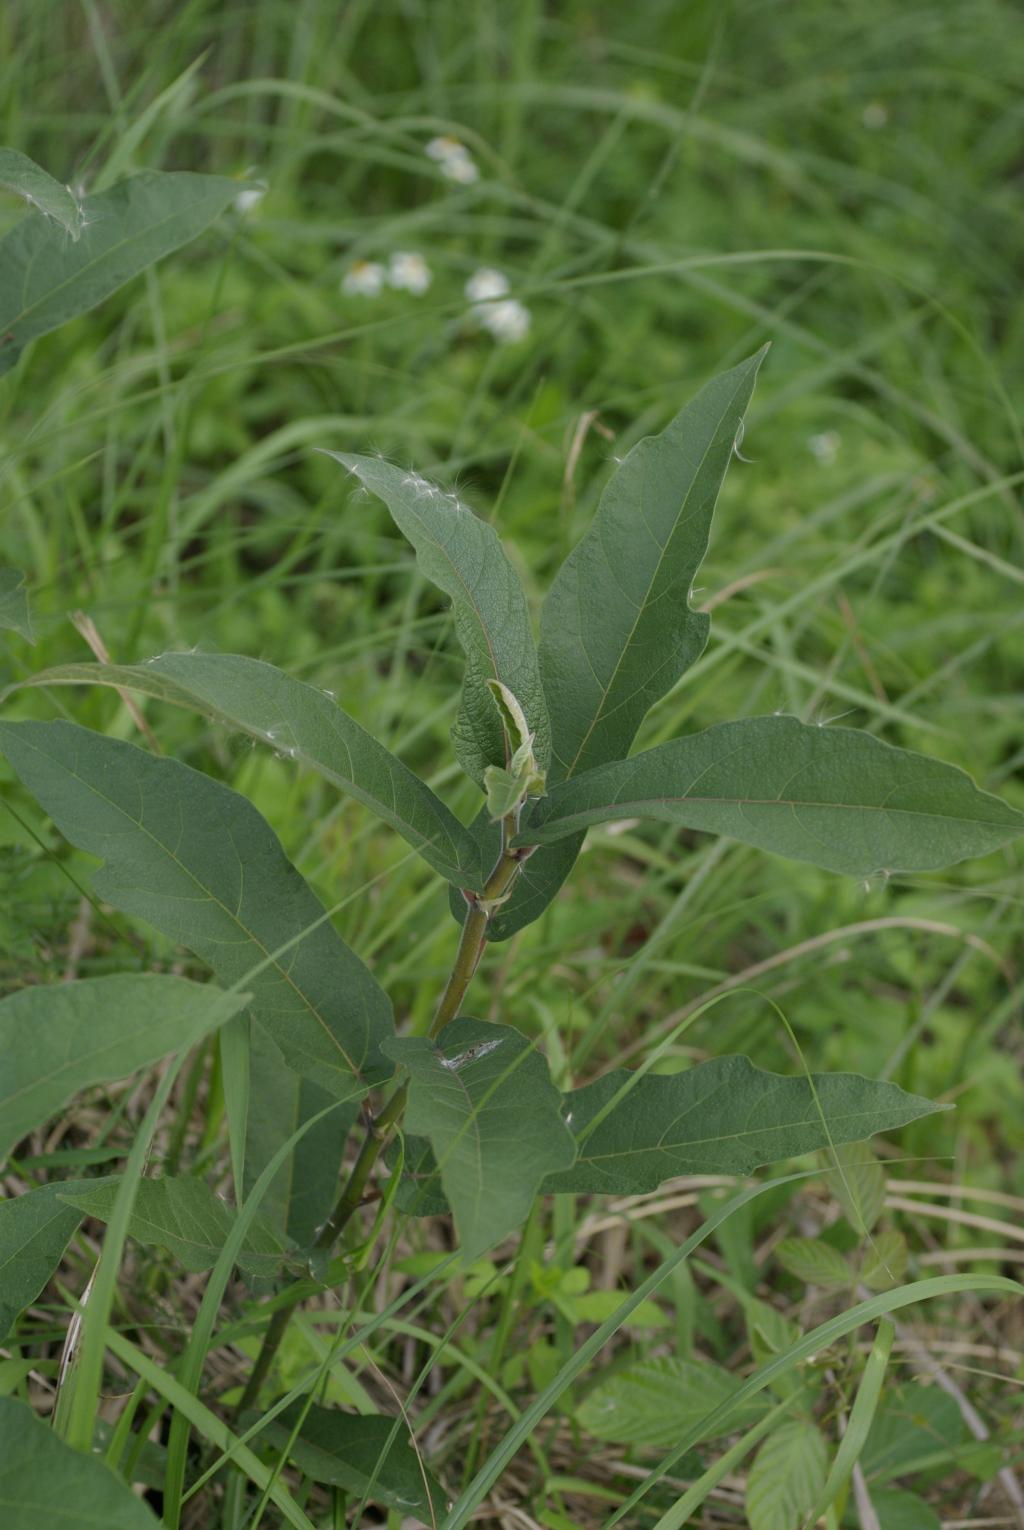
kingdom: Plantae
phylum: Tracheophyta
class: Magnoliopsida
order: Rosales
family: Moraceae
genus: Ficus
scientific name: Ficus erecta
